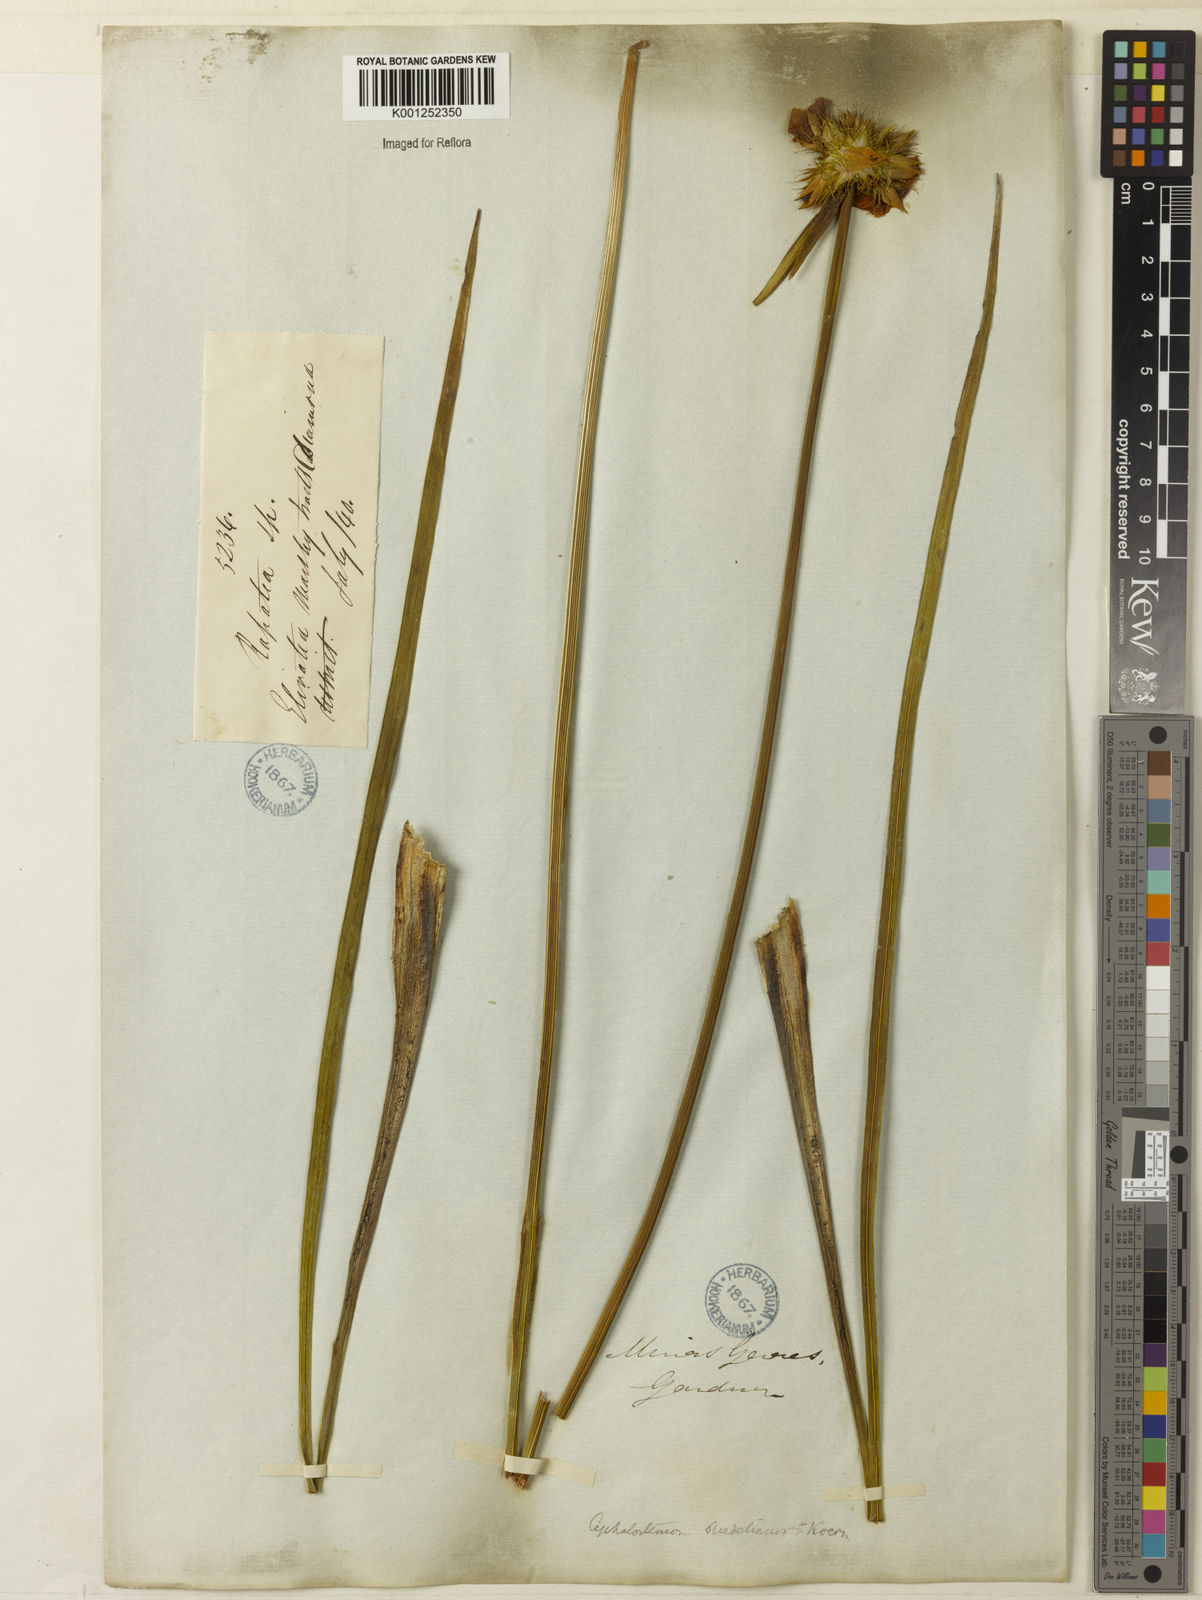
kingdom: Plantae
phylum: Tracheophyta
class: Liliopsida
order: Poales
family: Rapateaceae
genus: Rapatea
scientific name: Rapatea
